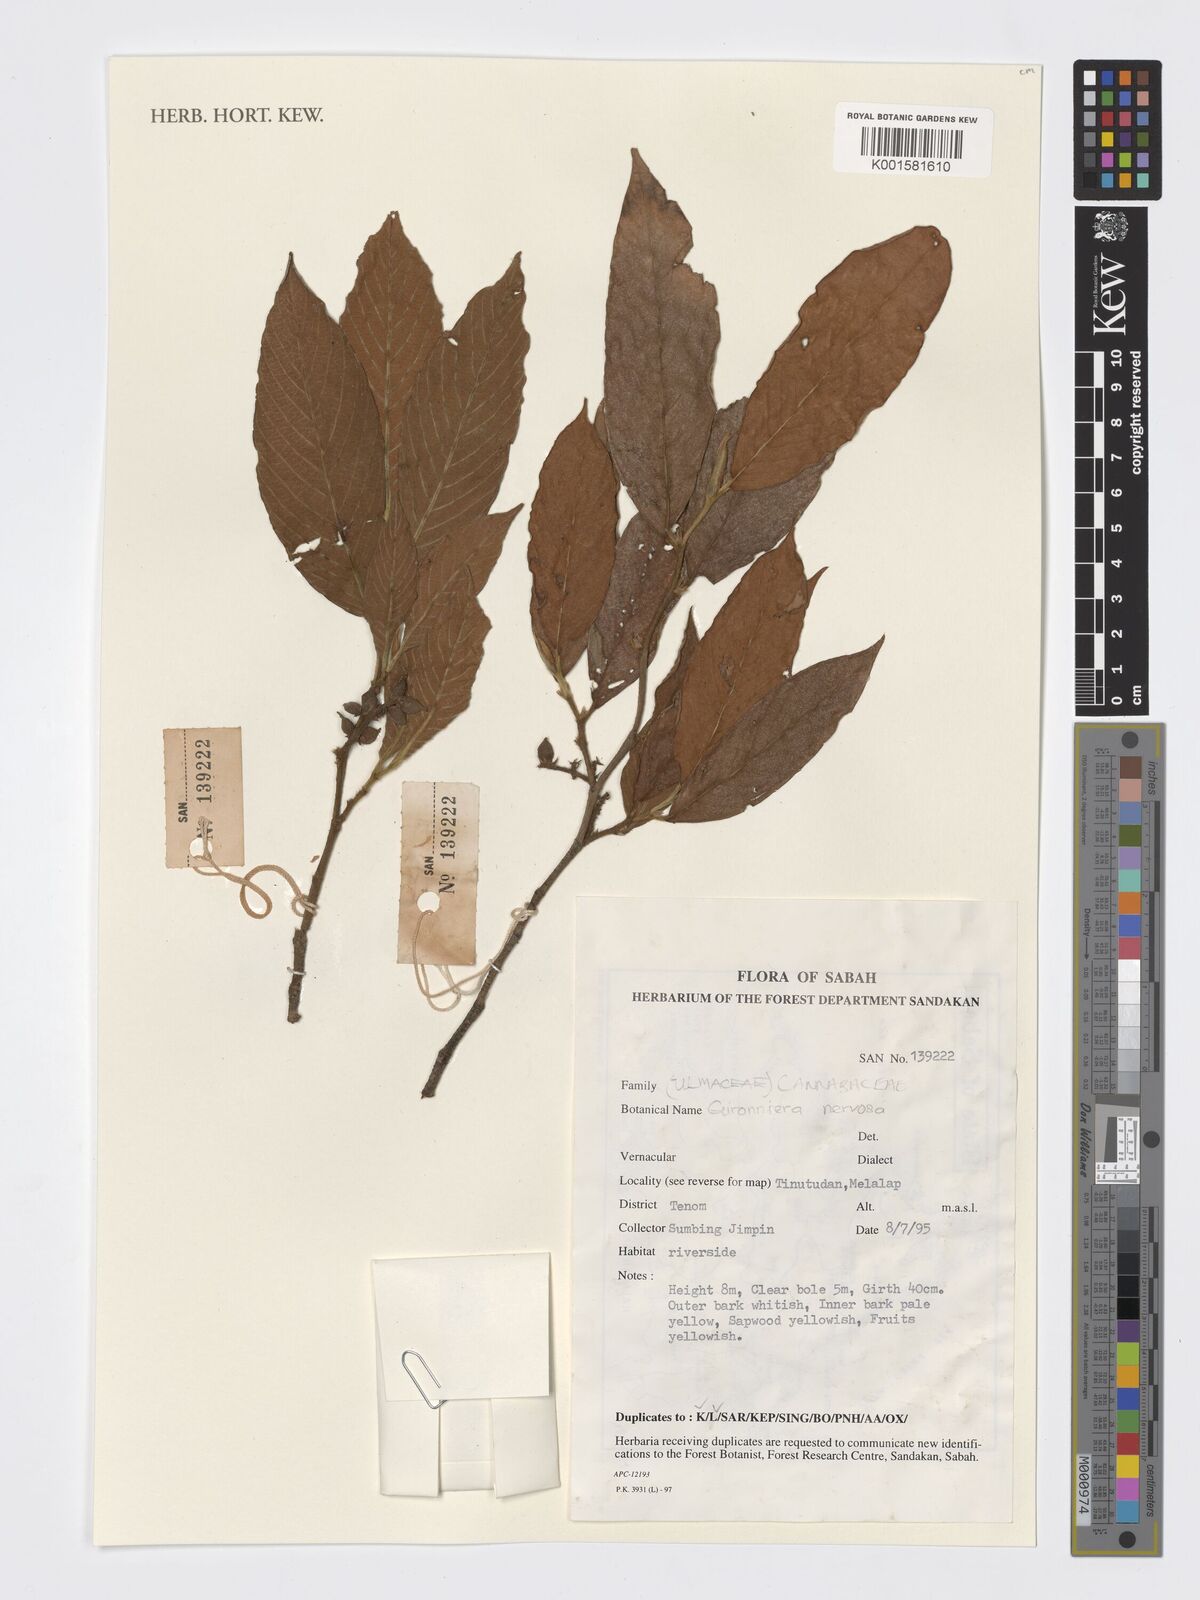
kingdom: Plantae
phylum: Tracheophyta
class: Magnoliopsida
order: Rosales
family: Cannabaceae
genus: Gironniera
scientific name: Gironniera nervosa
